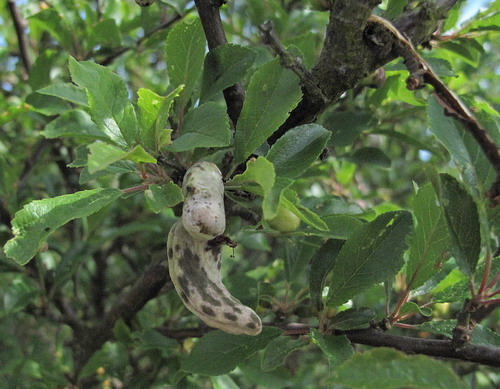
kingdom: Fungi
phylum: Ascomycota
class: Taphrinomycetes
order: Taphrinales
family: Taphrinaceae
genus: Taphrina
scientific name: Taphrina padi
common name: Bird cherry pocket
